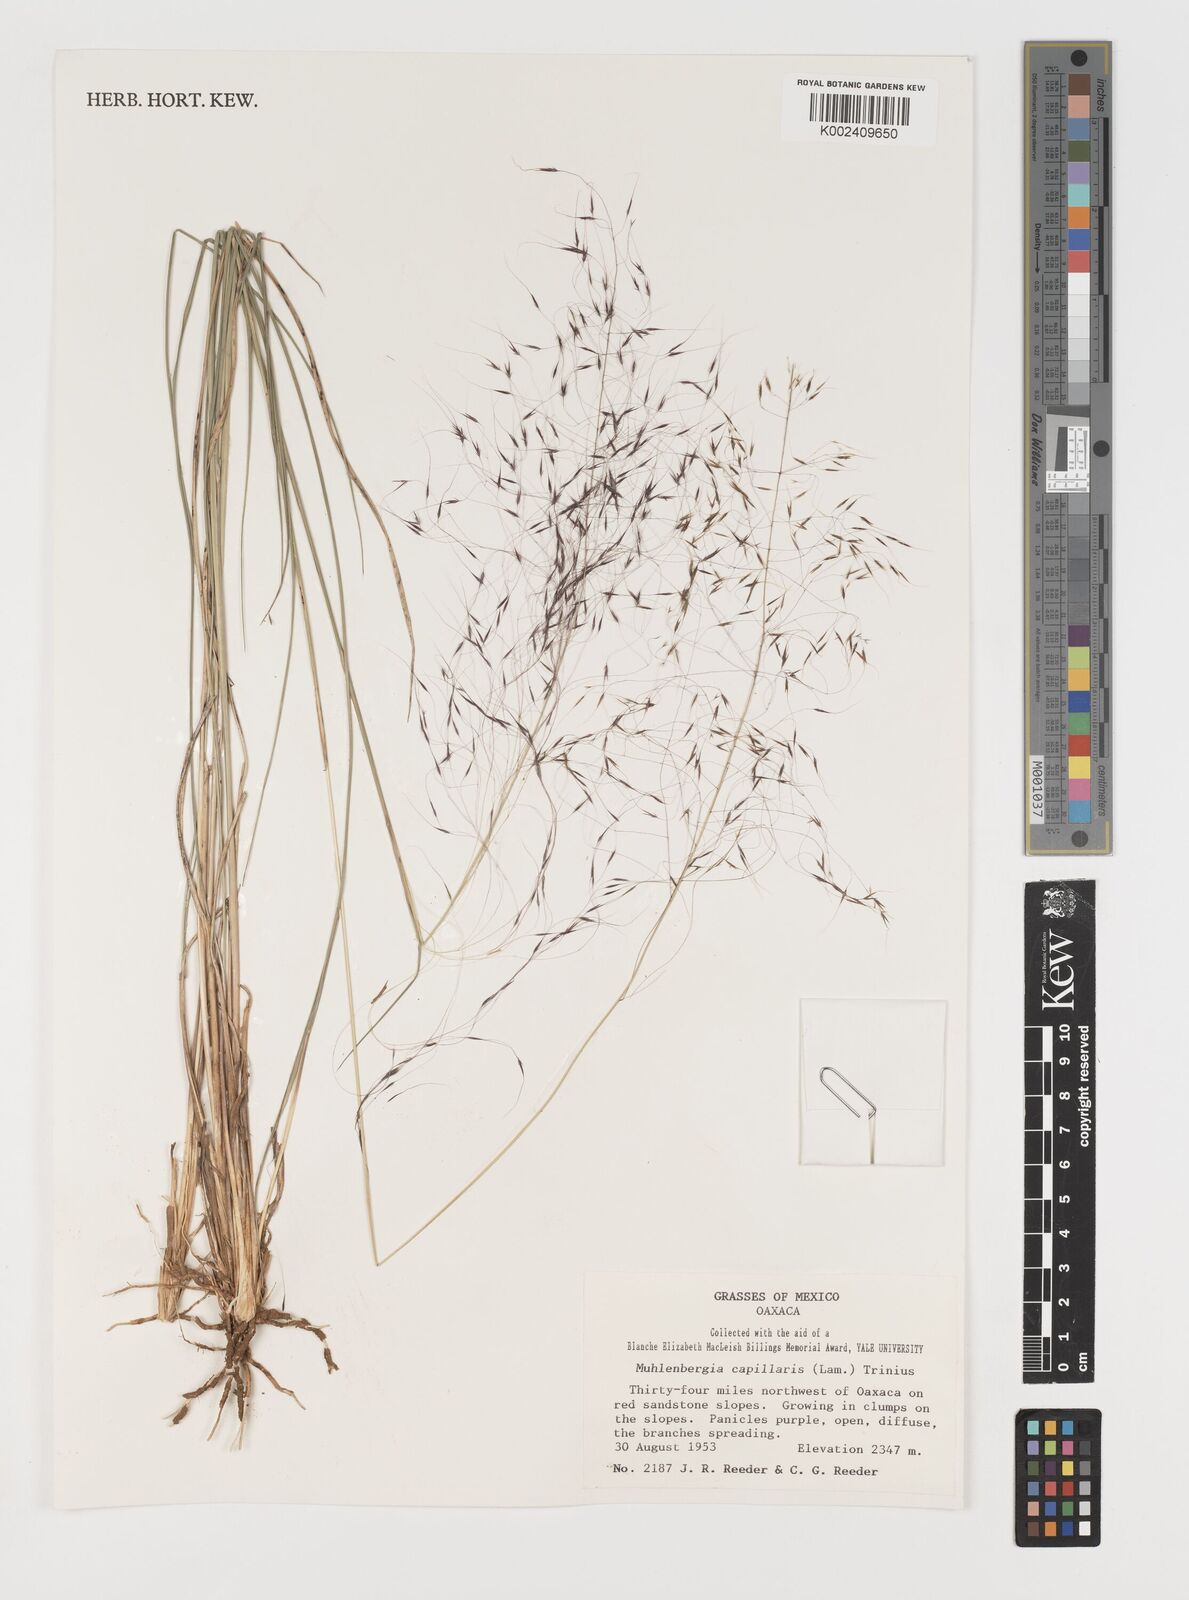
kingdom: Plantae
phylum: Tracheophyta
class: Liliopsida
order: Poales
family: Poaceae
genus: Muhlenbergia
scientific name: Muhlenbergia capillaris
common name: Purple grass
